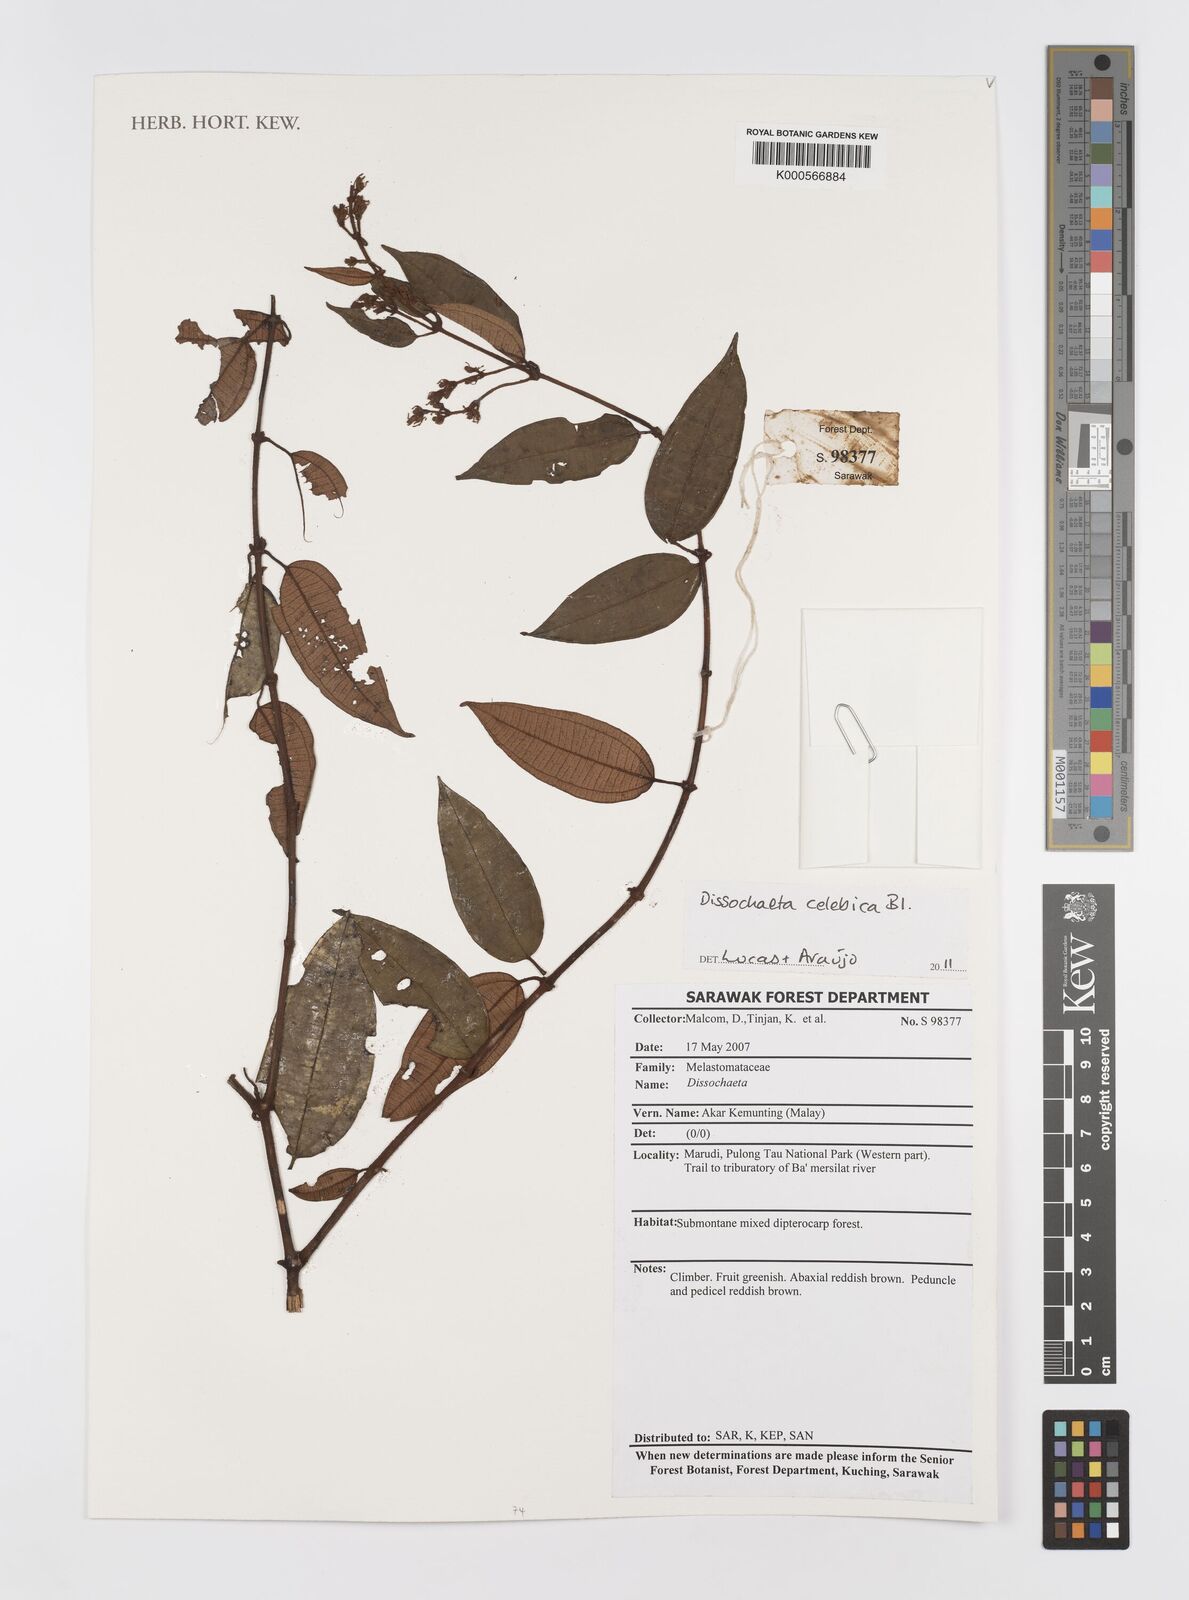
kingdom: Plantae
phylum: Tracheophyta
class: Magnoliopsida
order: Myrtales
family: Melastomataceae
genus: Dissochaeta
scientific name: Dissochaeta celebica
